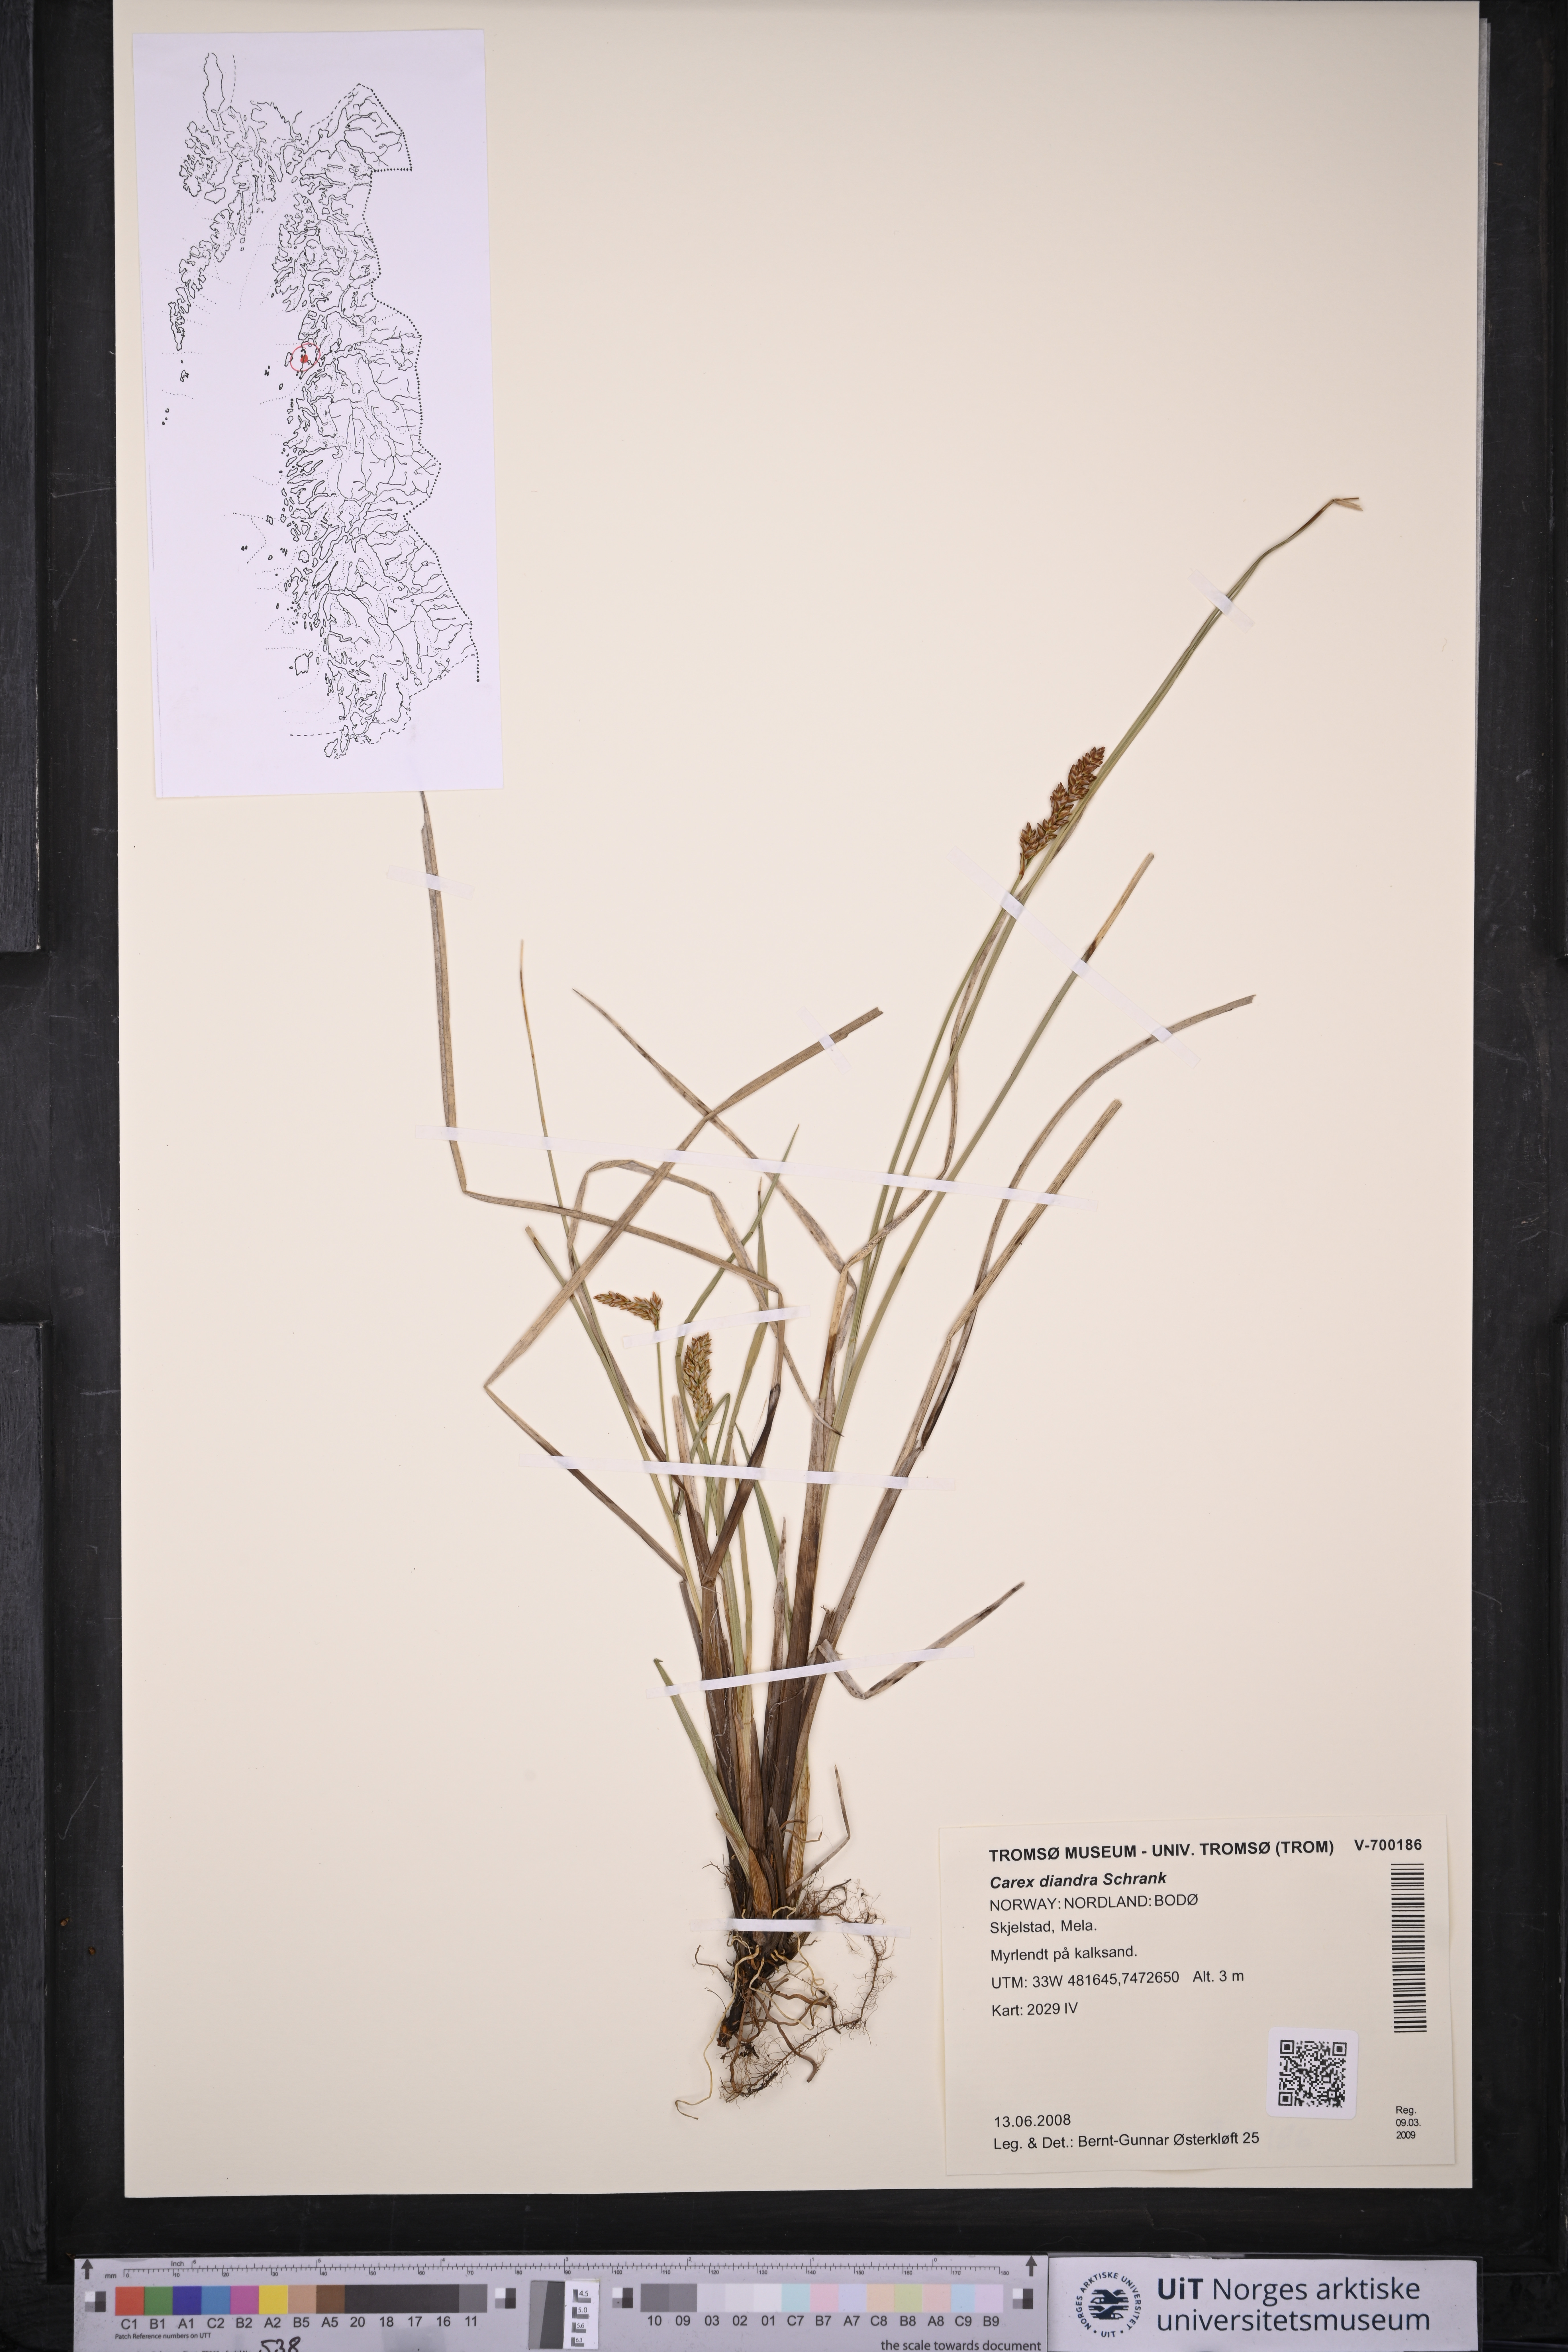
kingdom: Plantae
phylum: Tracheophyta
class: Liliopsida
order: Poales
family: Cyperaceae
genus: Carex
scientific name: Carex diandra
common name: Lesser tussock-sedge
